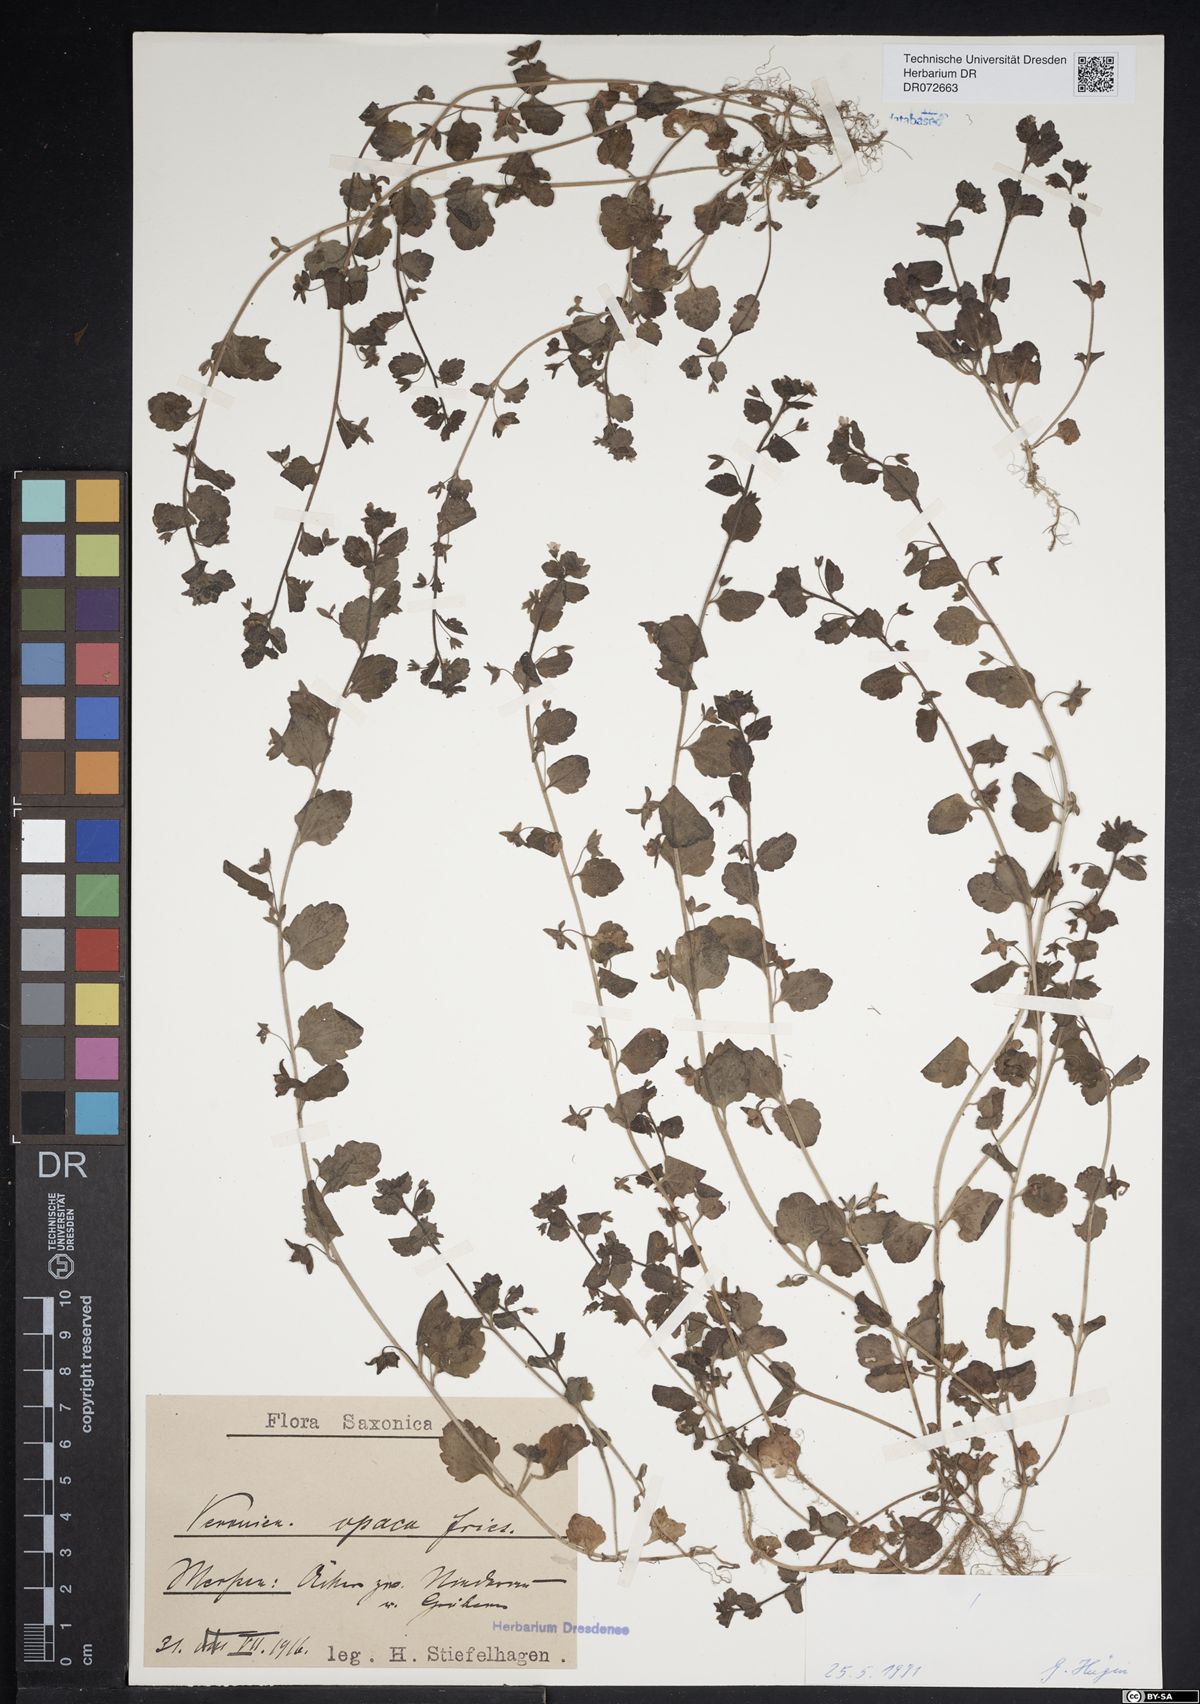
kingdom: Plantae
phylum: Tracheophyta
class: Magnoliopsida
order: Lamiales
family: Plantaginaceae
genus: Veronica
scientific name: Veronica opaca
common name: Dark speedwell
